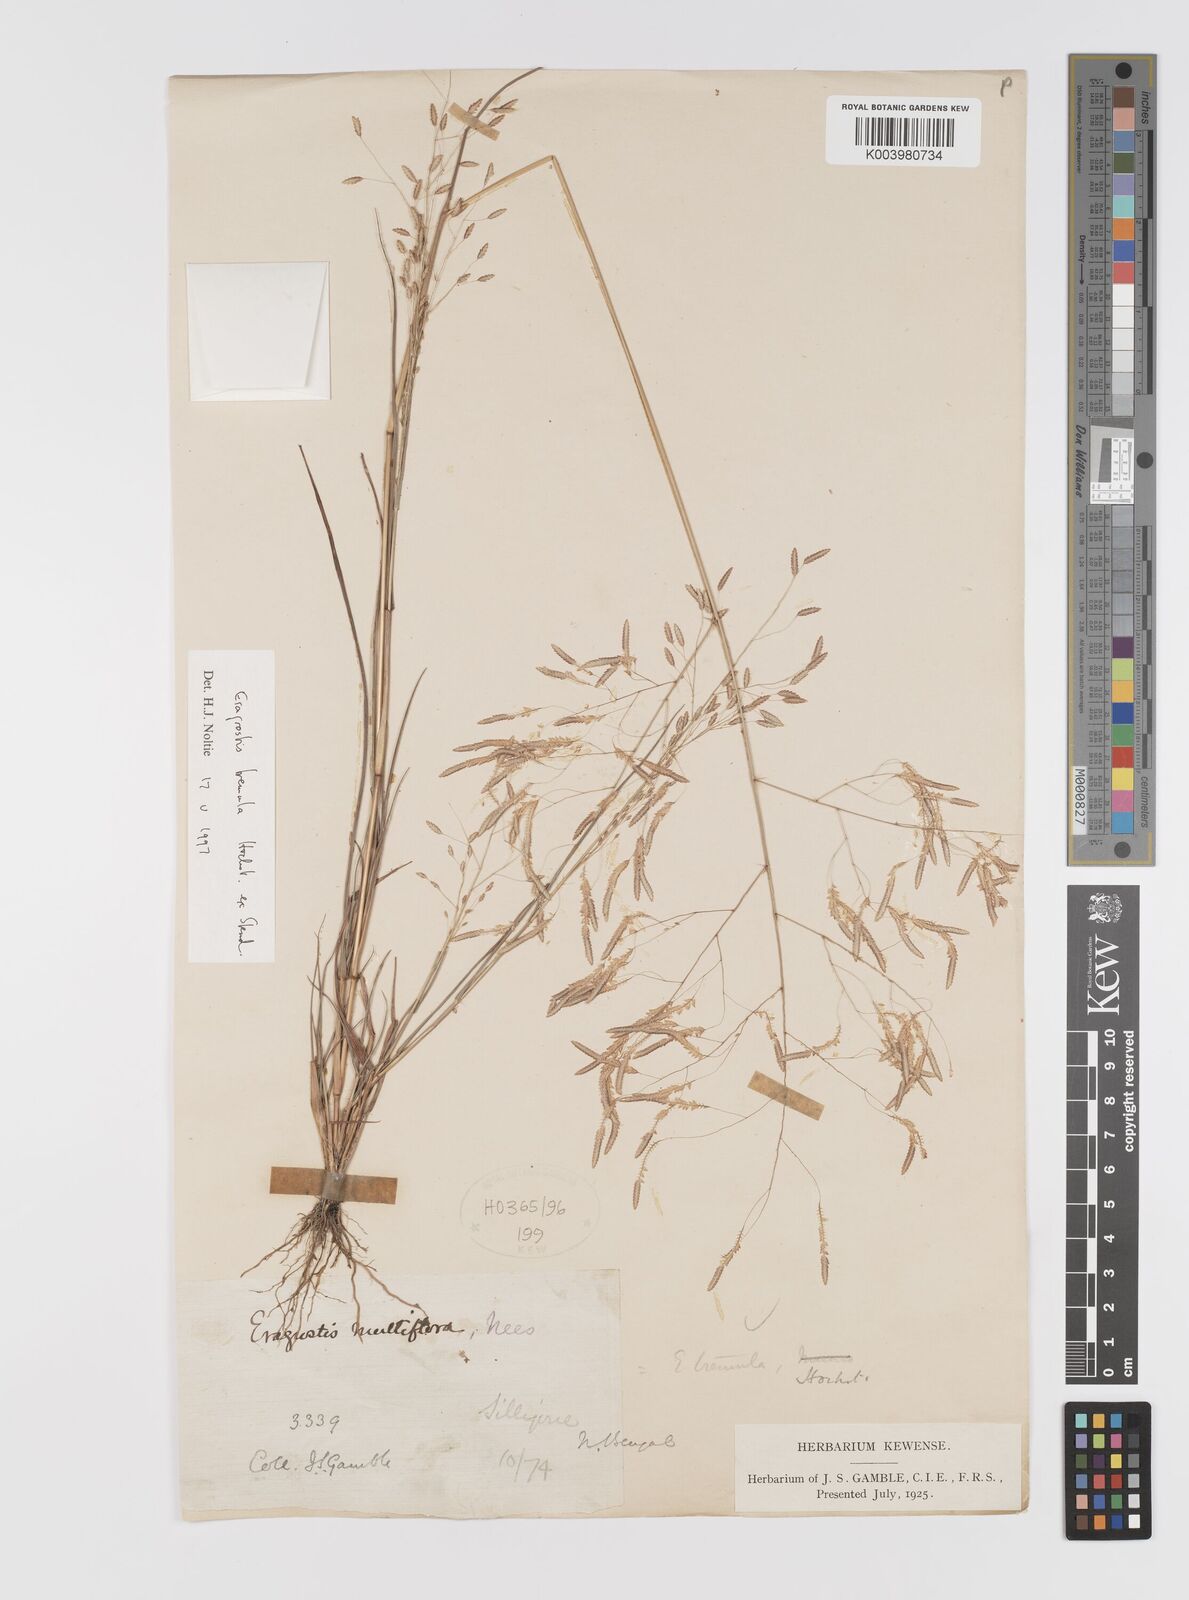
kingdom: Plantae
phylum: Tracheophyta
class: Liliopsida
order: Poales
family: Poaceae
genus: Eragrostis
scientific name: Eragrostis tremula
